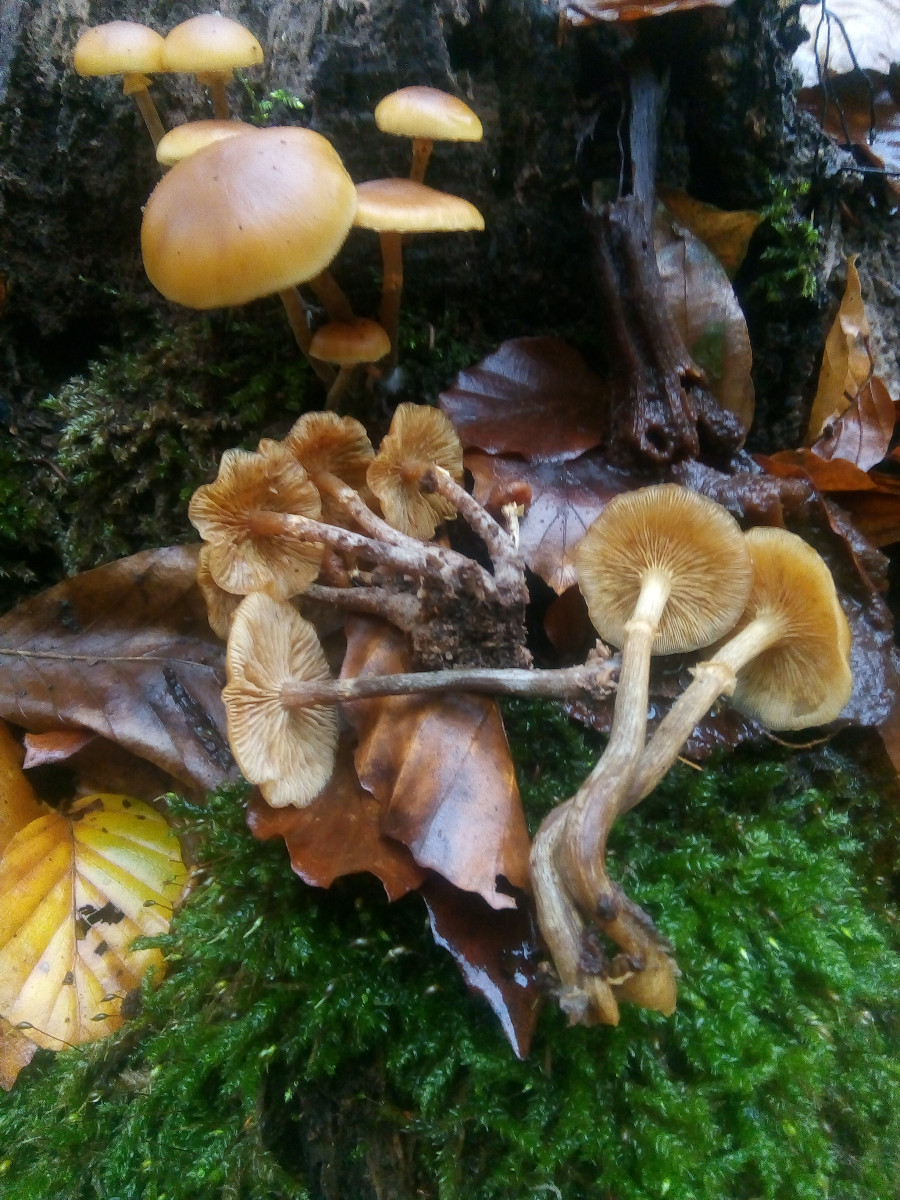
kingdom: Fungi
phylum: Basidiomycota
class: Agaricomycetes
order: Agaricales
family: Hymenogastraceae
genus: Galerina
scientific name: Galerina marginata
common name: randbæltet hjelmhat
